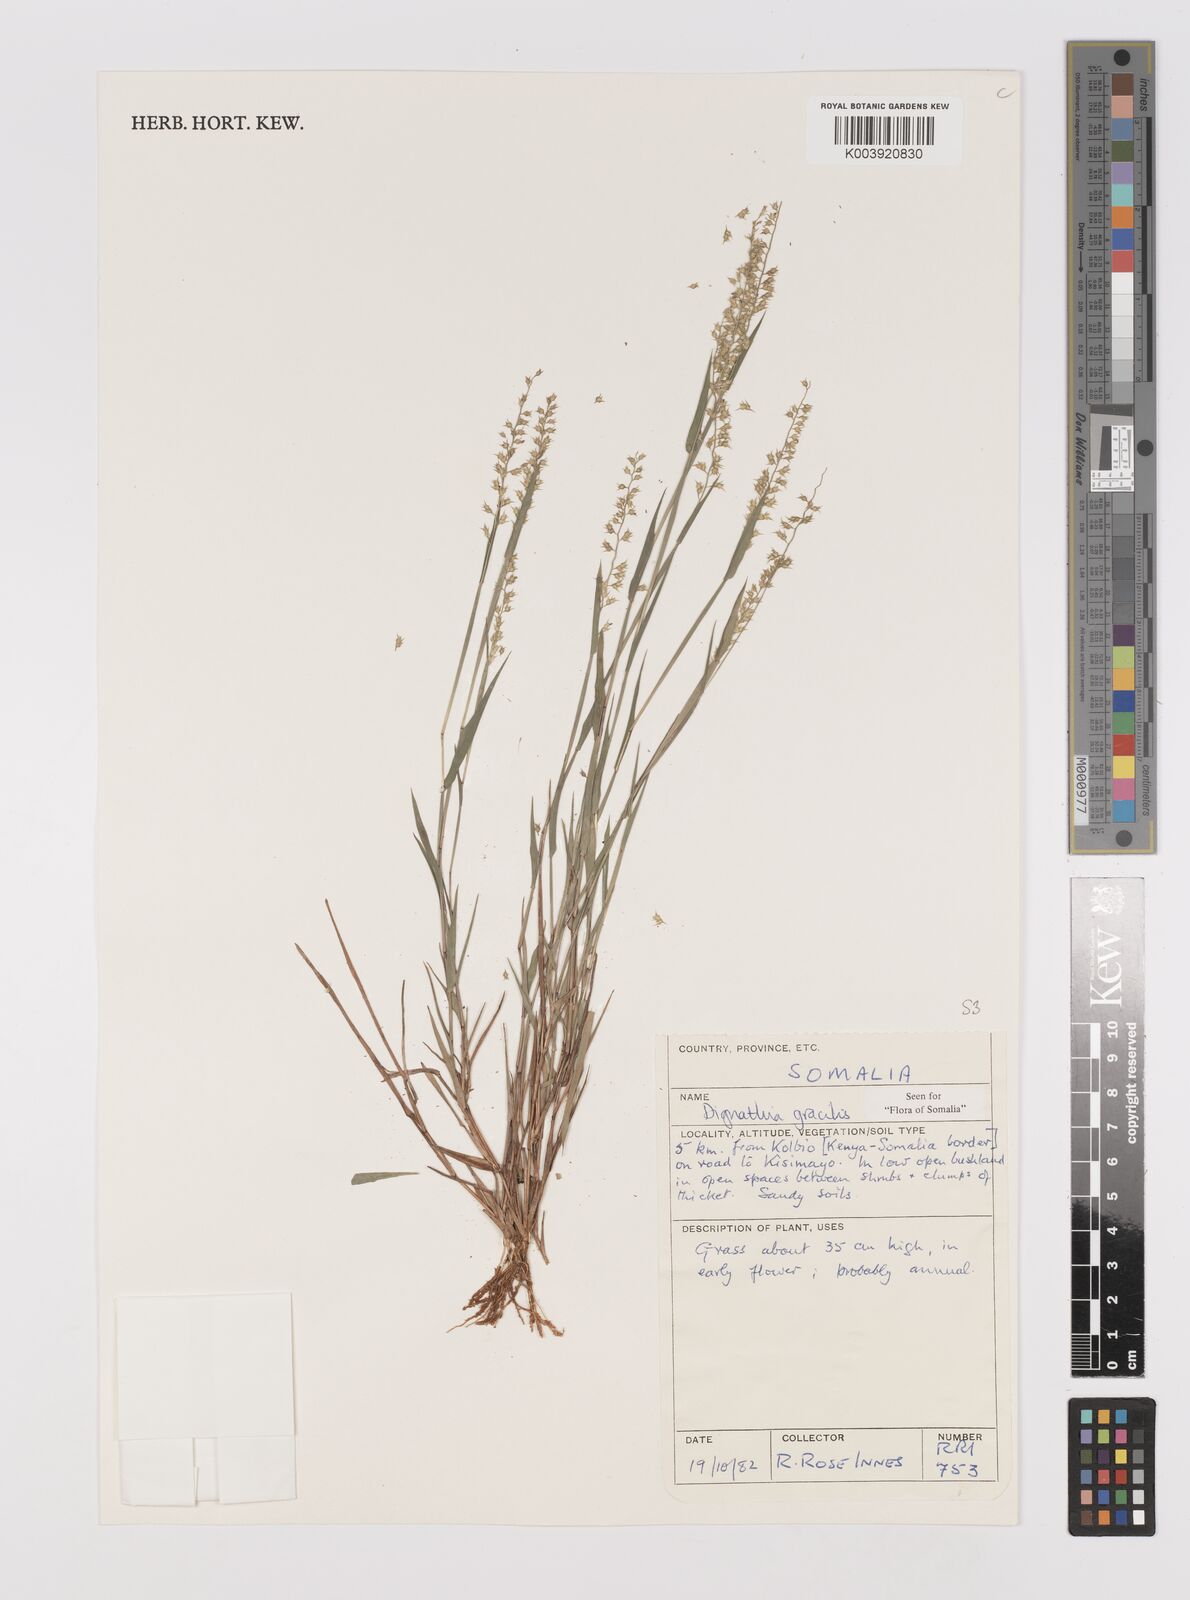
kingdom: Plantae
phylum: Tracheophyta
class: Liliopsida
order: Poales
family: Poaceae
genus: Dignathia
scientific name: Dignathia gracilis
